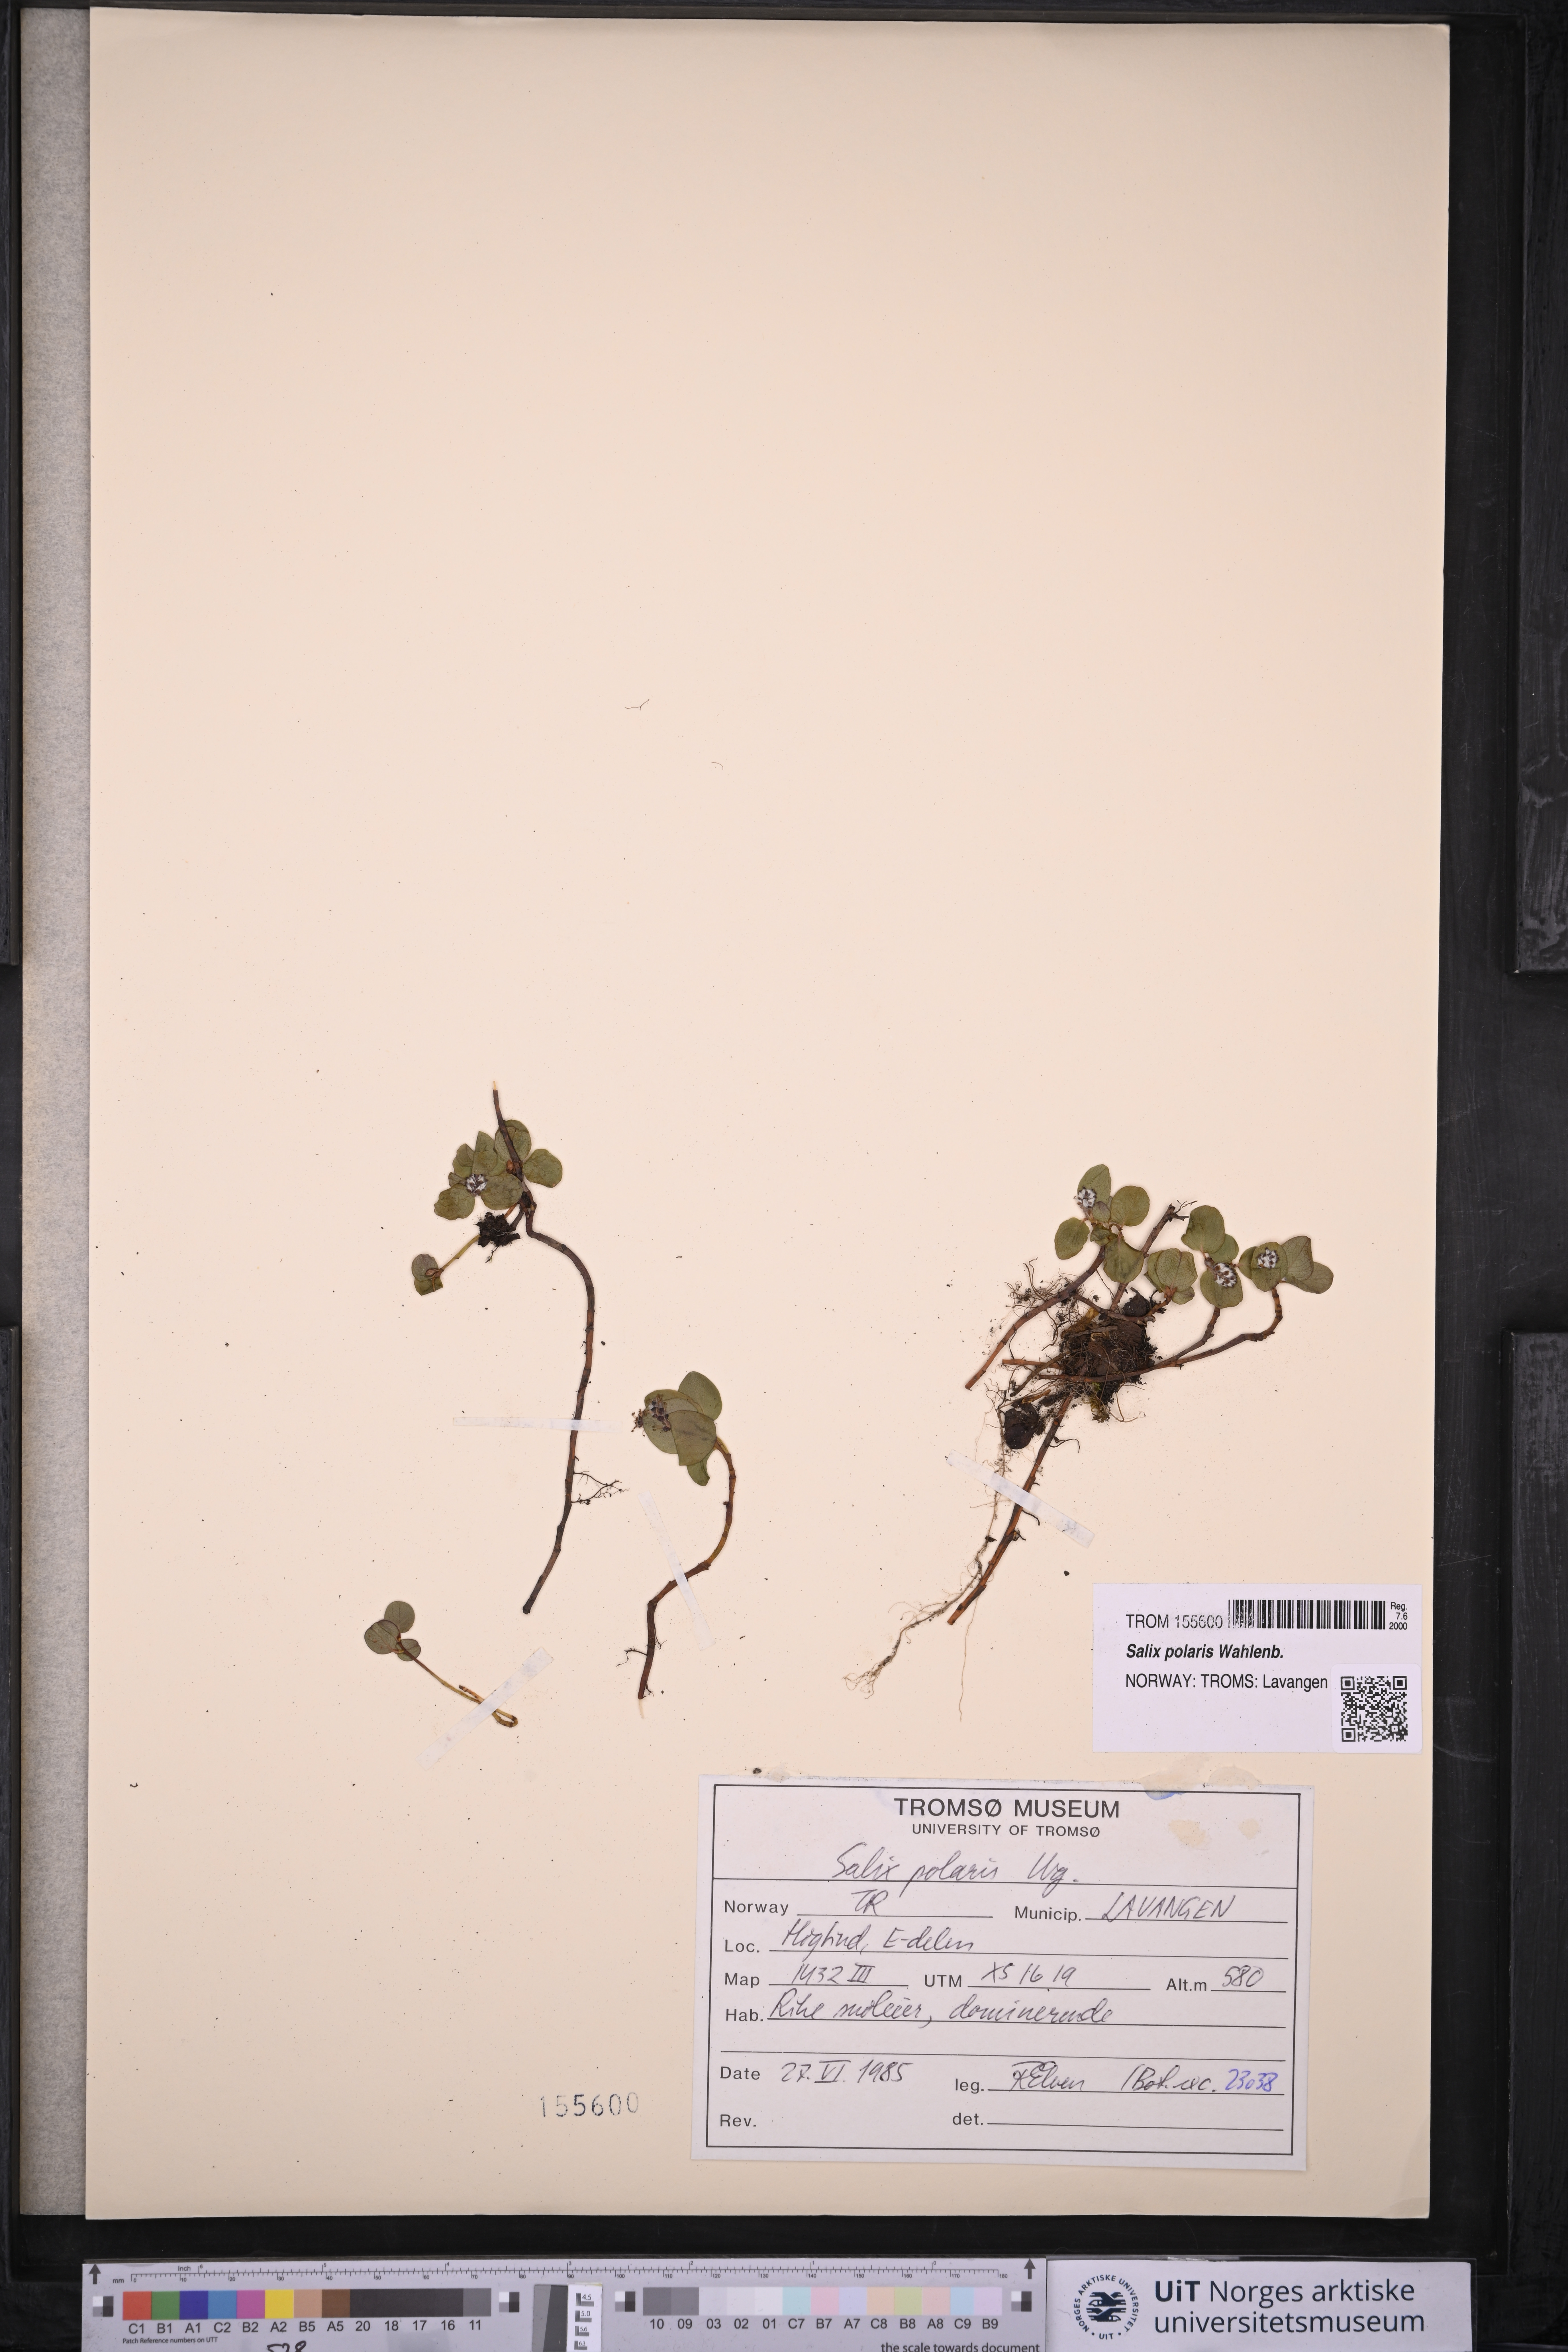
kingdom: Plantae
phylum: Tracheophyta
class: Magnoliopsida
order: Malpighiales
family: Salicaceae
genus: Salix
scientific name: Salix polaris
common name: Polar willow
